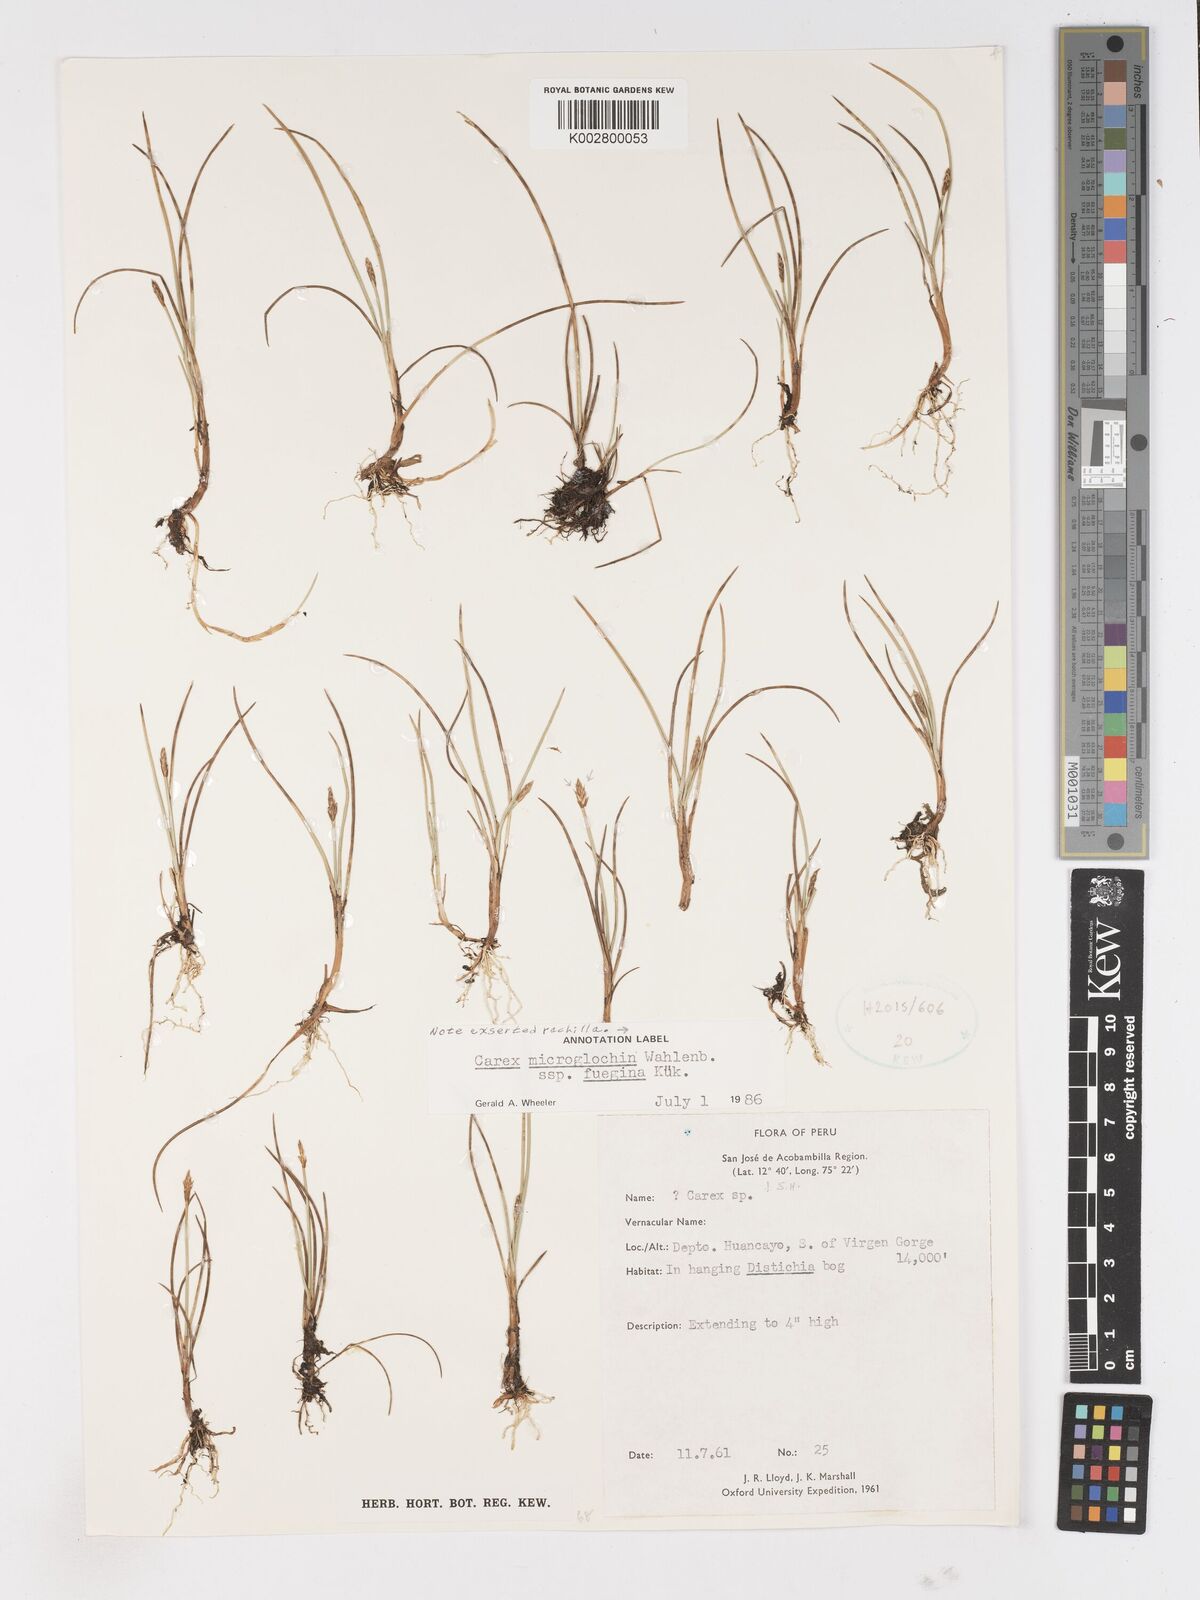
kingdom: Plantae
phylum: Tracheophyta
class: Liliopsida
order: Poales
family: Cyperaceae
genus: Carex
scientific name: Carex camptoglochin
